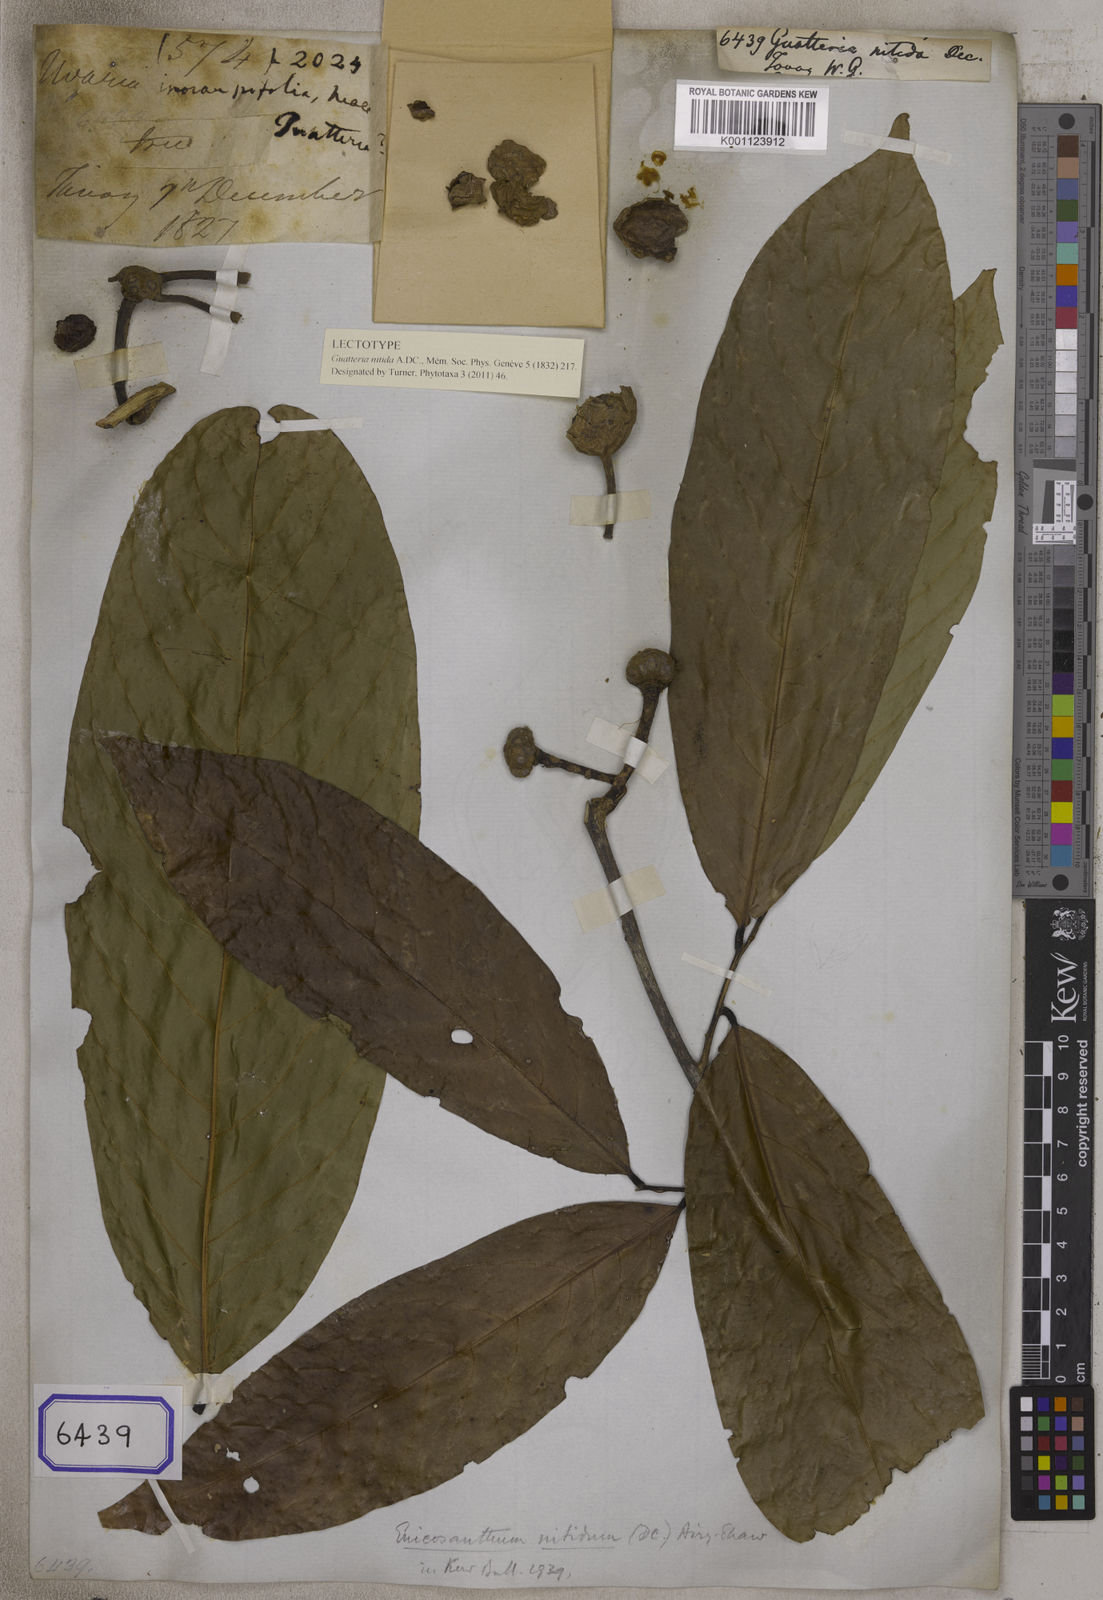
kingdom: Plantae
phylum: Tracheophyta
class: Magnoliopsida
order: Magnoliales
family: Annonaceae
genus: Enicosanthum
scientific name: Enicosanthum macranthum
